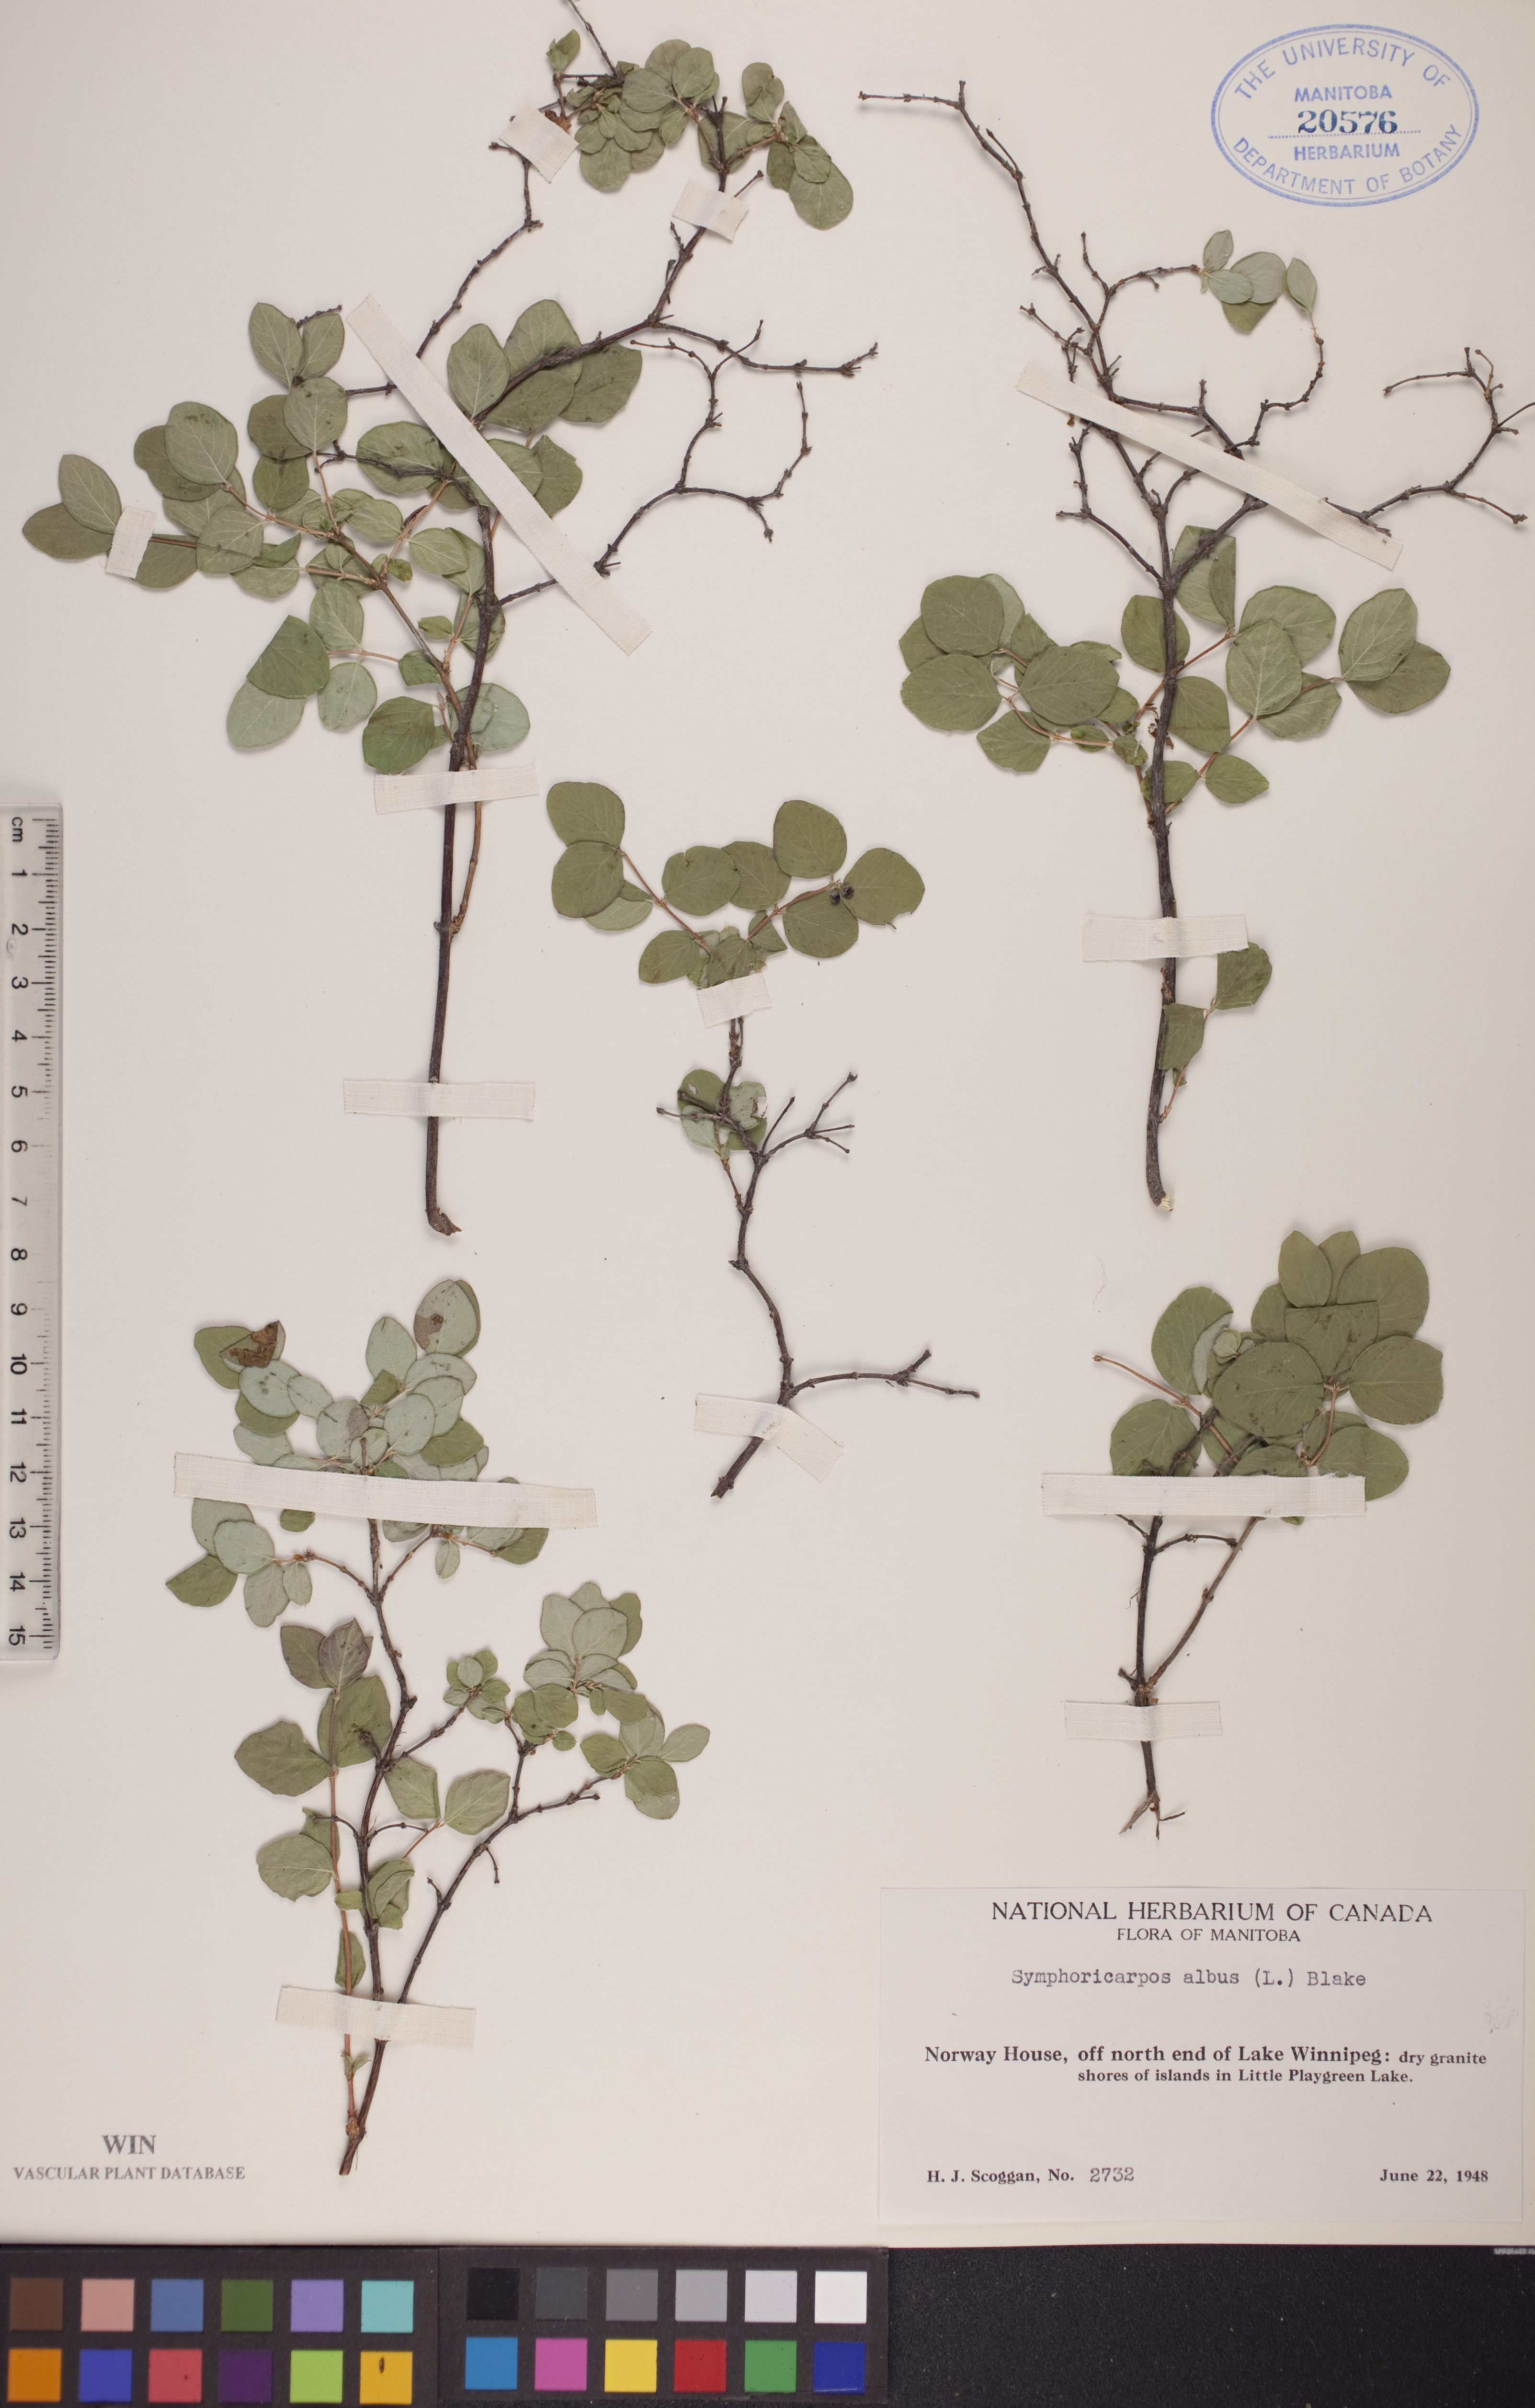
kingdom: Plantae
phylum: Tracheophyta
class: Magnoliopsida
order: Dipsacales
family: Caprifoliaceae
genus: Symphoricarpos
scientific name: Symphoricarpos albus
